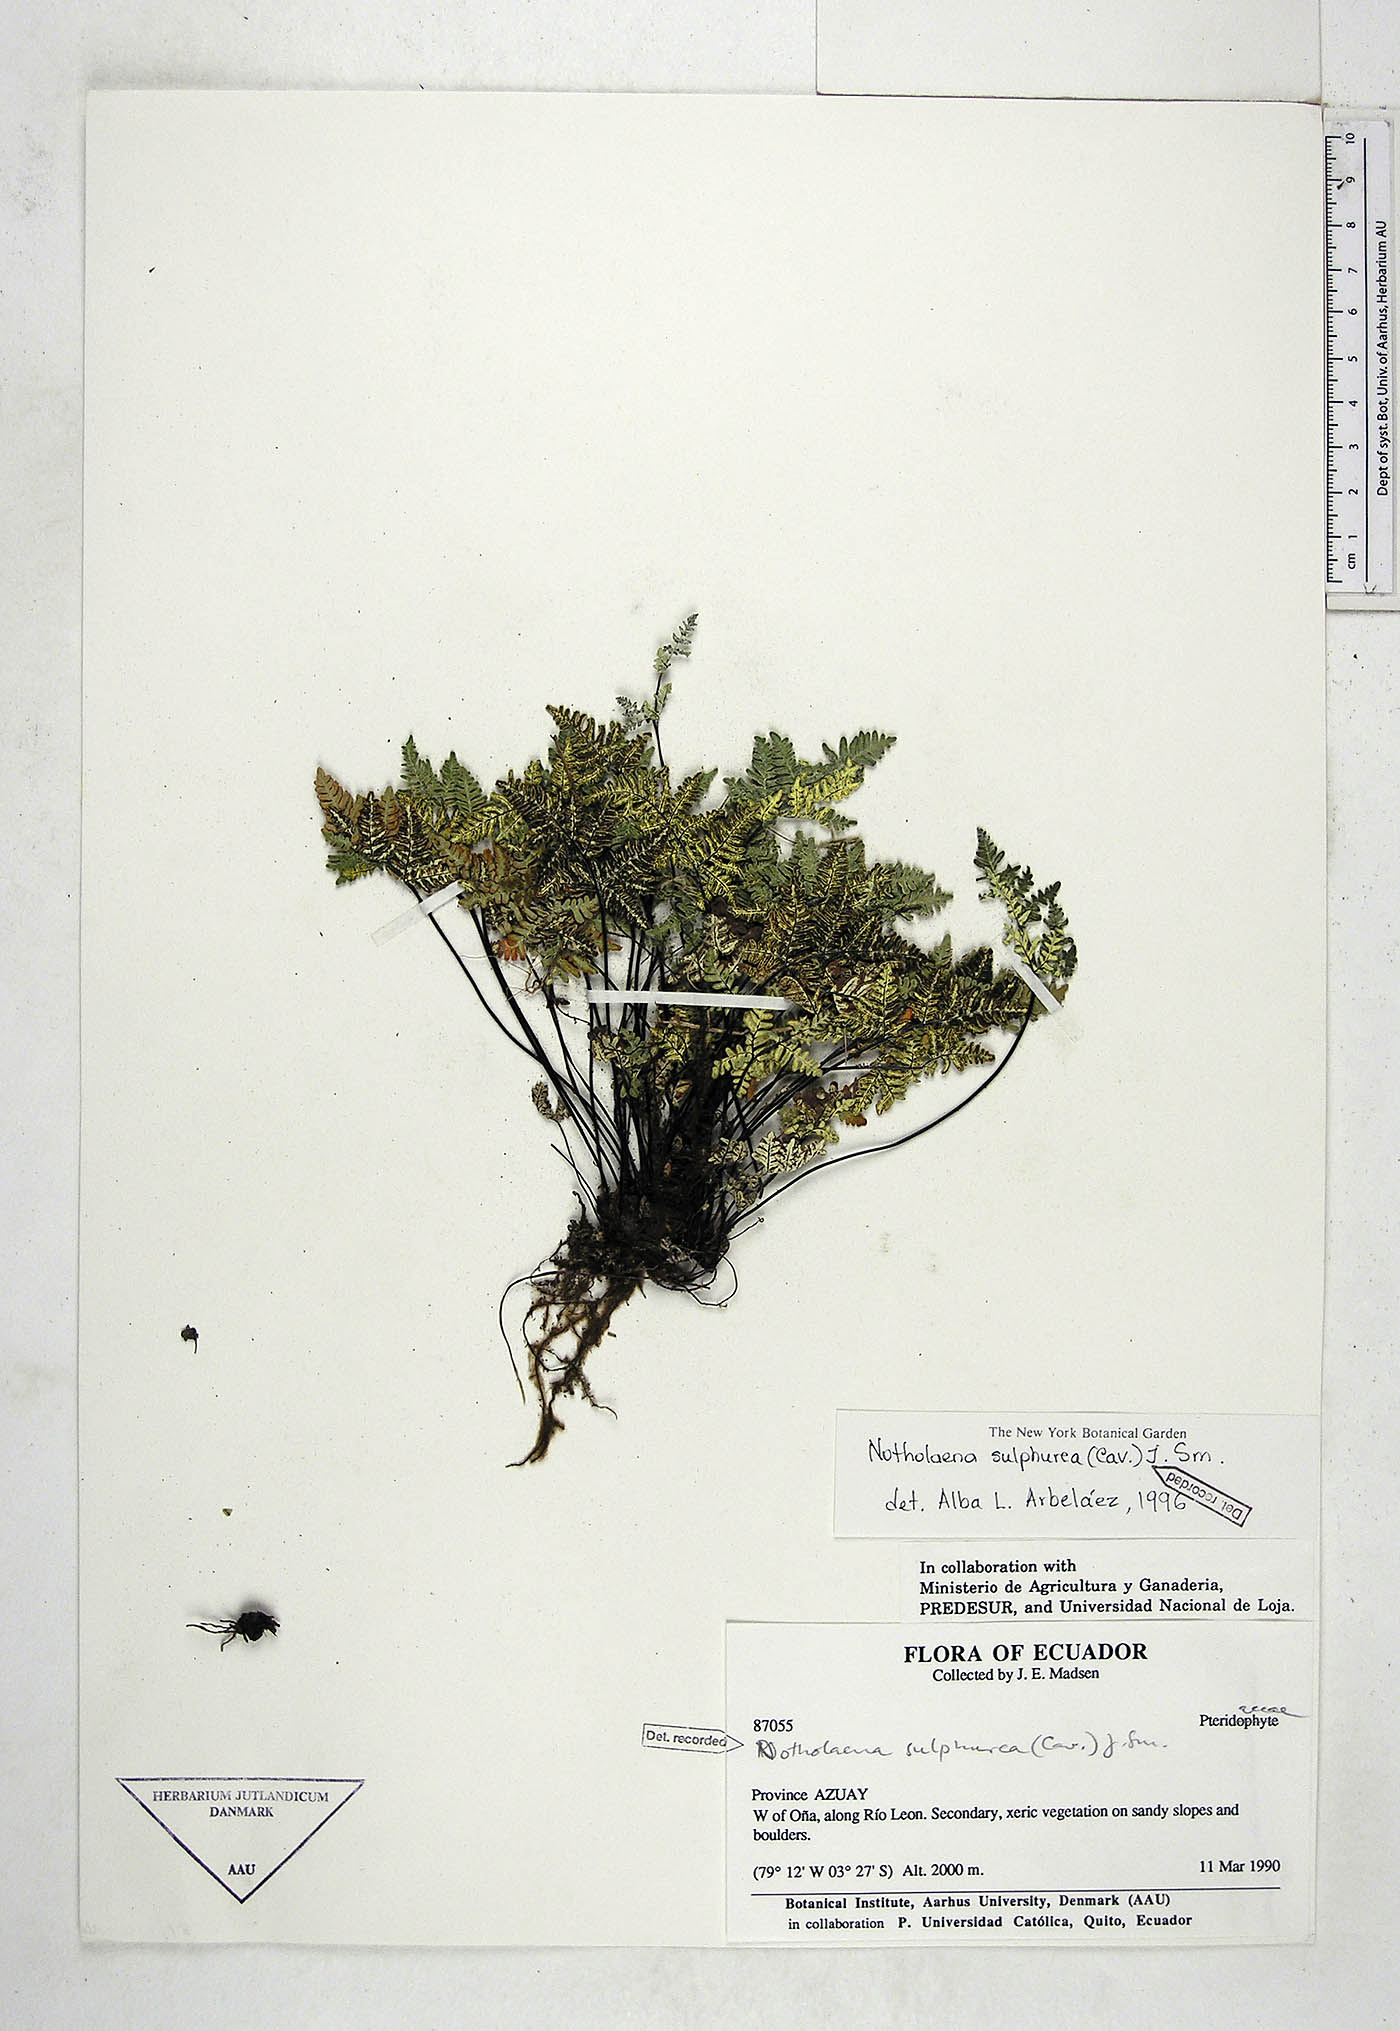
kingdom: Plantae
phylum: Tracheophyta
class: Polypodiopsida
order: Polypodiales
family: Pteridaceae
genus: Notholaena
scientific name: Notholaena sulphurea
